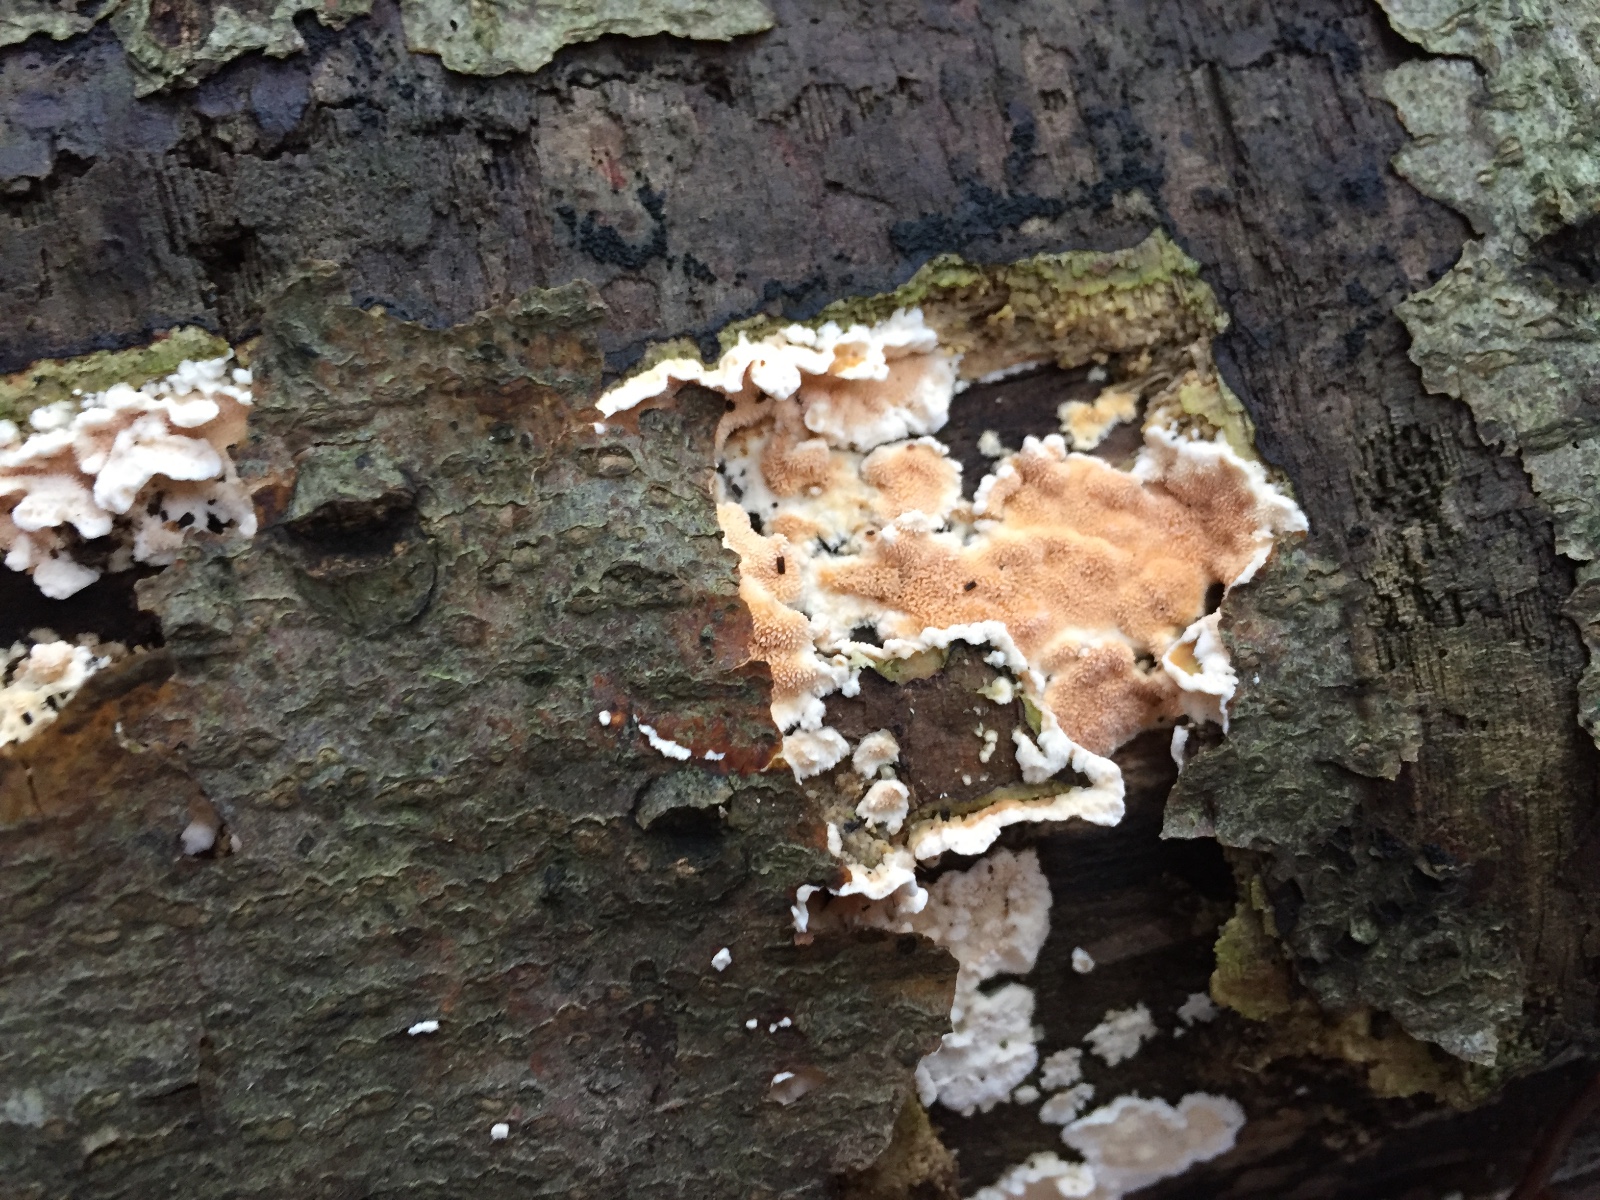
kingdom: Fungi
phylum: Basidiomycota
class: Agaricomycetes
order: Polyporales
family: Steccherinaceae
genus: Steccherinum
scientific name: Steccherinum ochraceum
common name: almindelig skønpig
